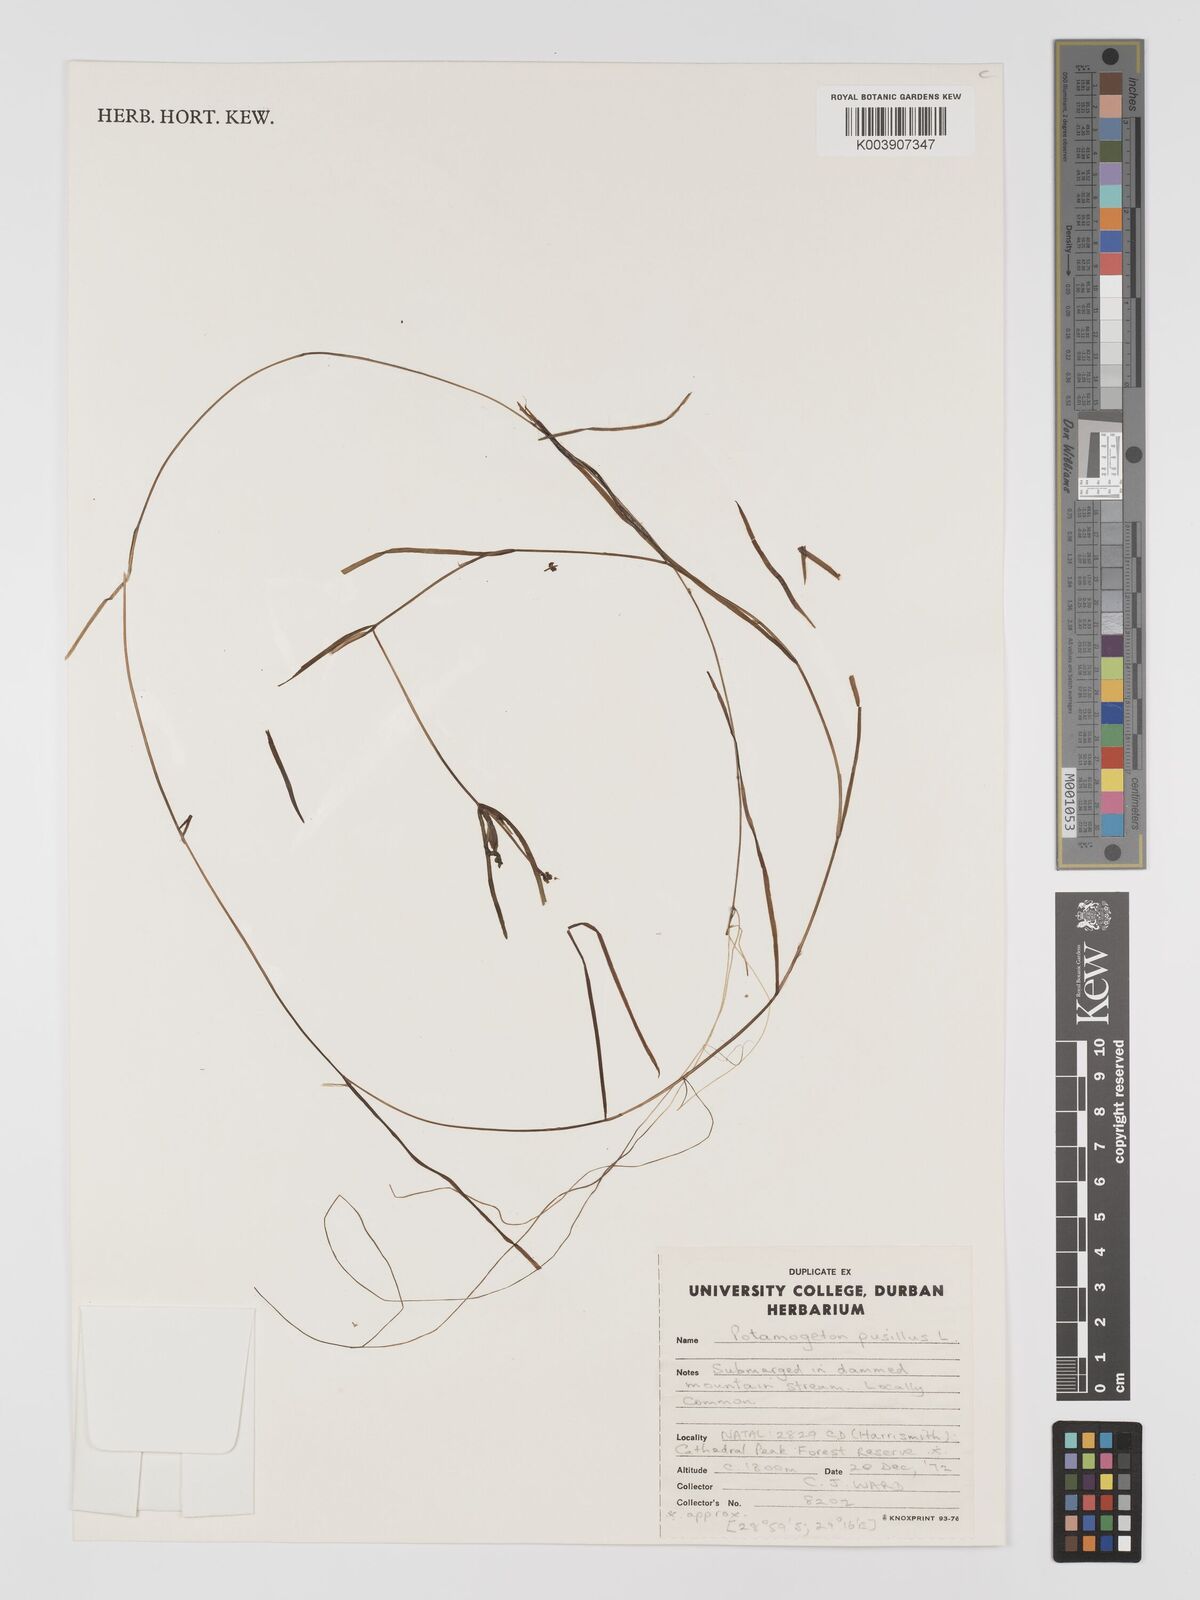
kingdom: Plantae
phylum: Tracheophyta
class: Liliopsida
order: Alismatales
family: Potamogetonaceae
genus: Potamogeton
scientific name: Potamogeton pusillus
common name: Lesser pondweed
